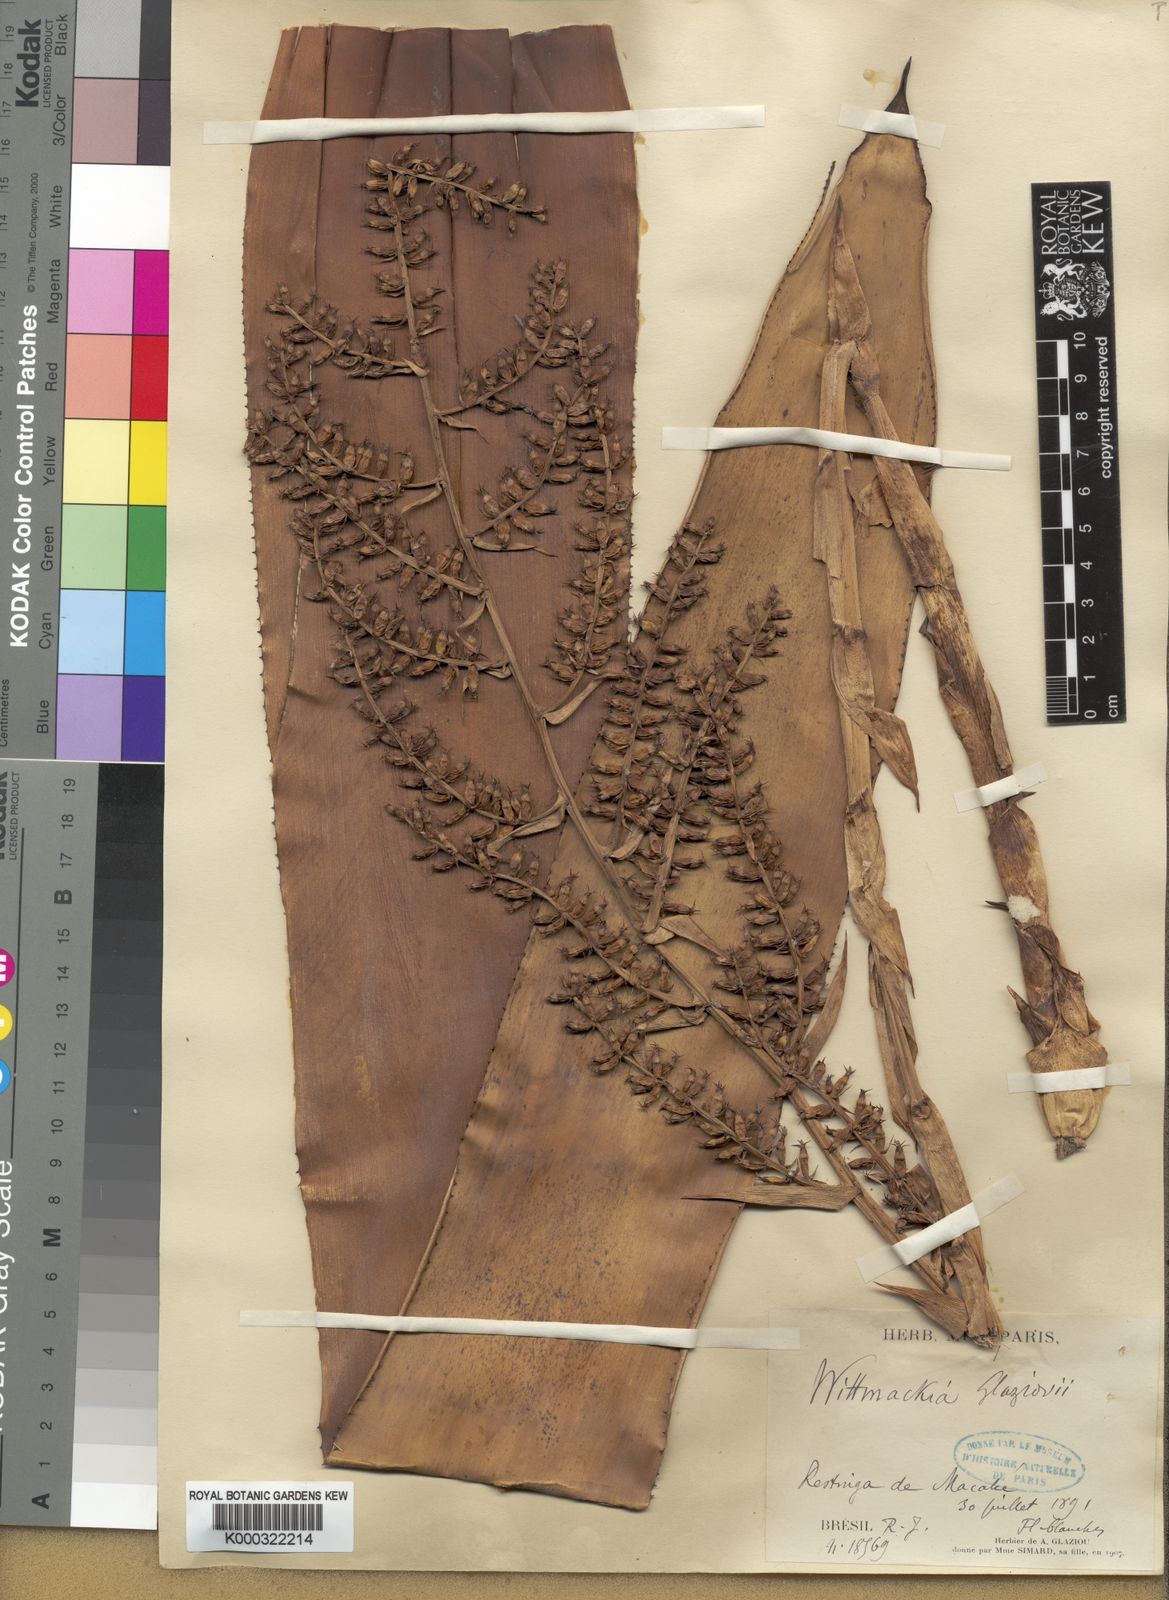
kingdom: Plantae
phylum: Tracheophyta
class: Liliopsida
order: Poales
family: Bromeliaceae
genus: Wittmackia
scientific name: Wittmackia lingulata
